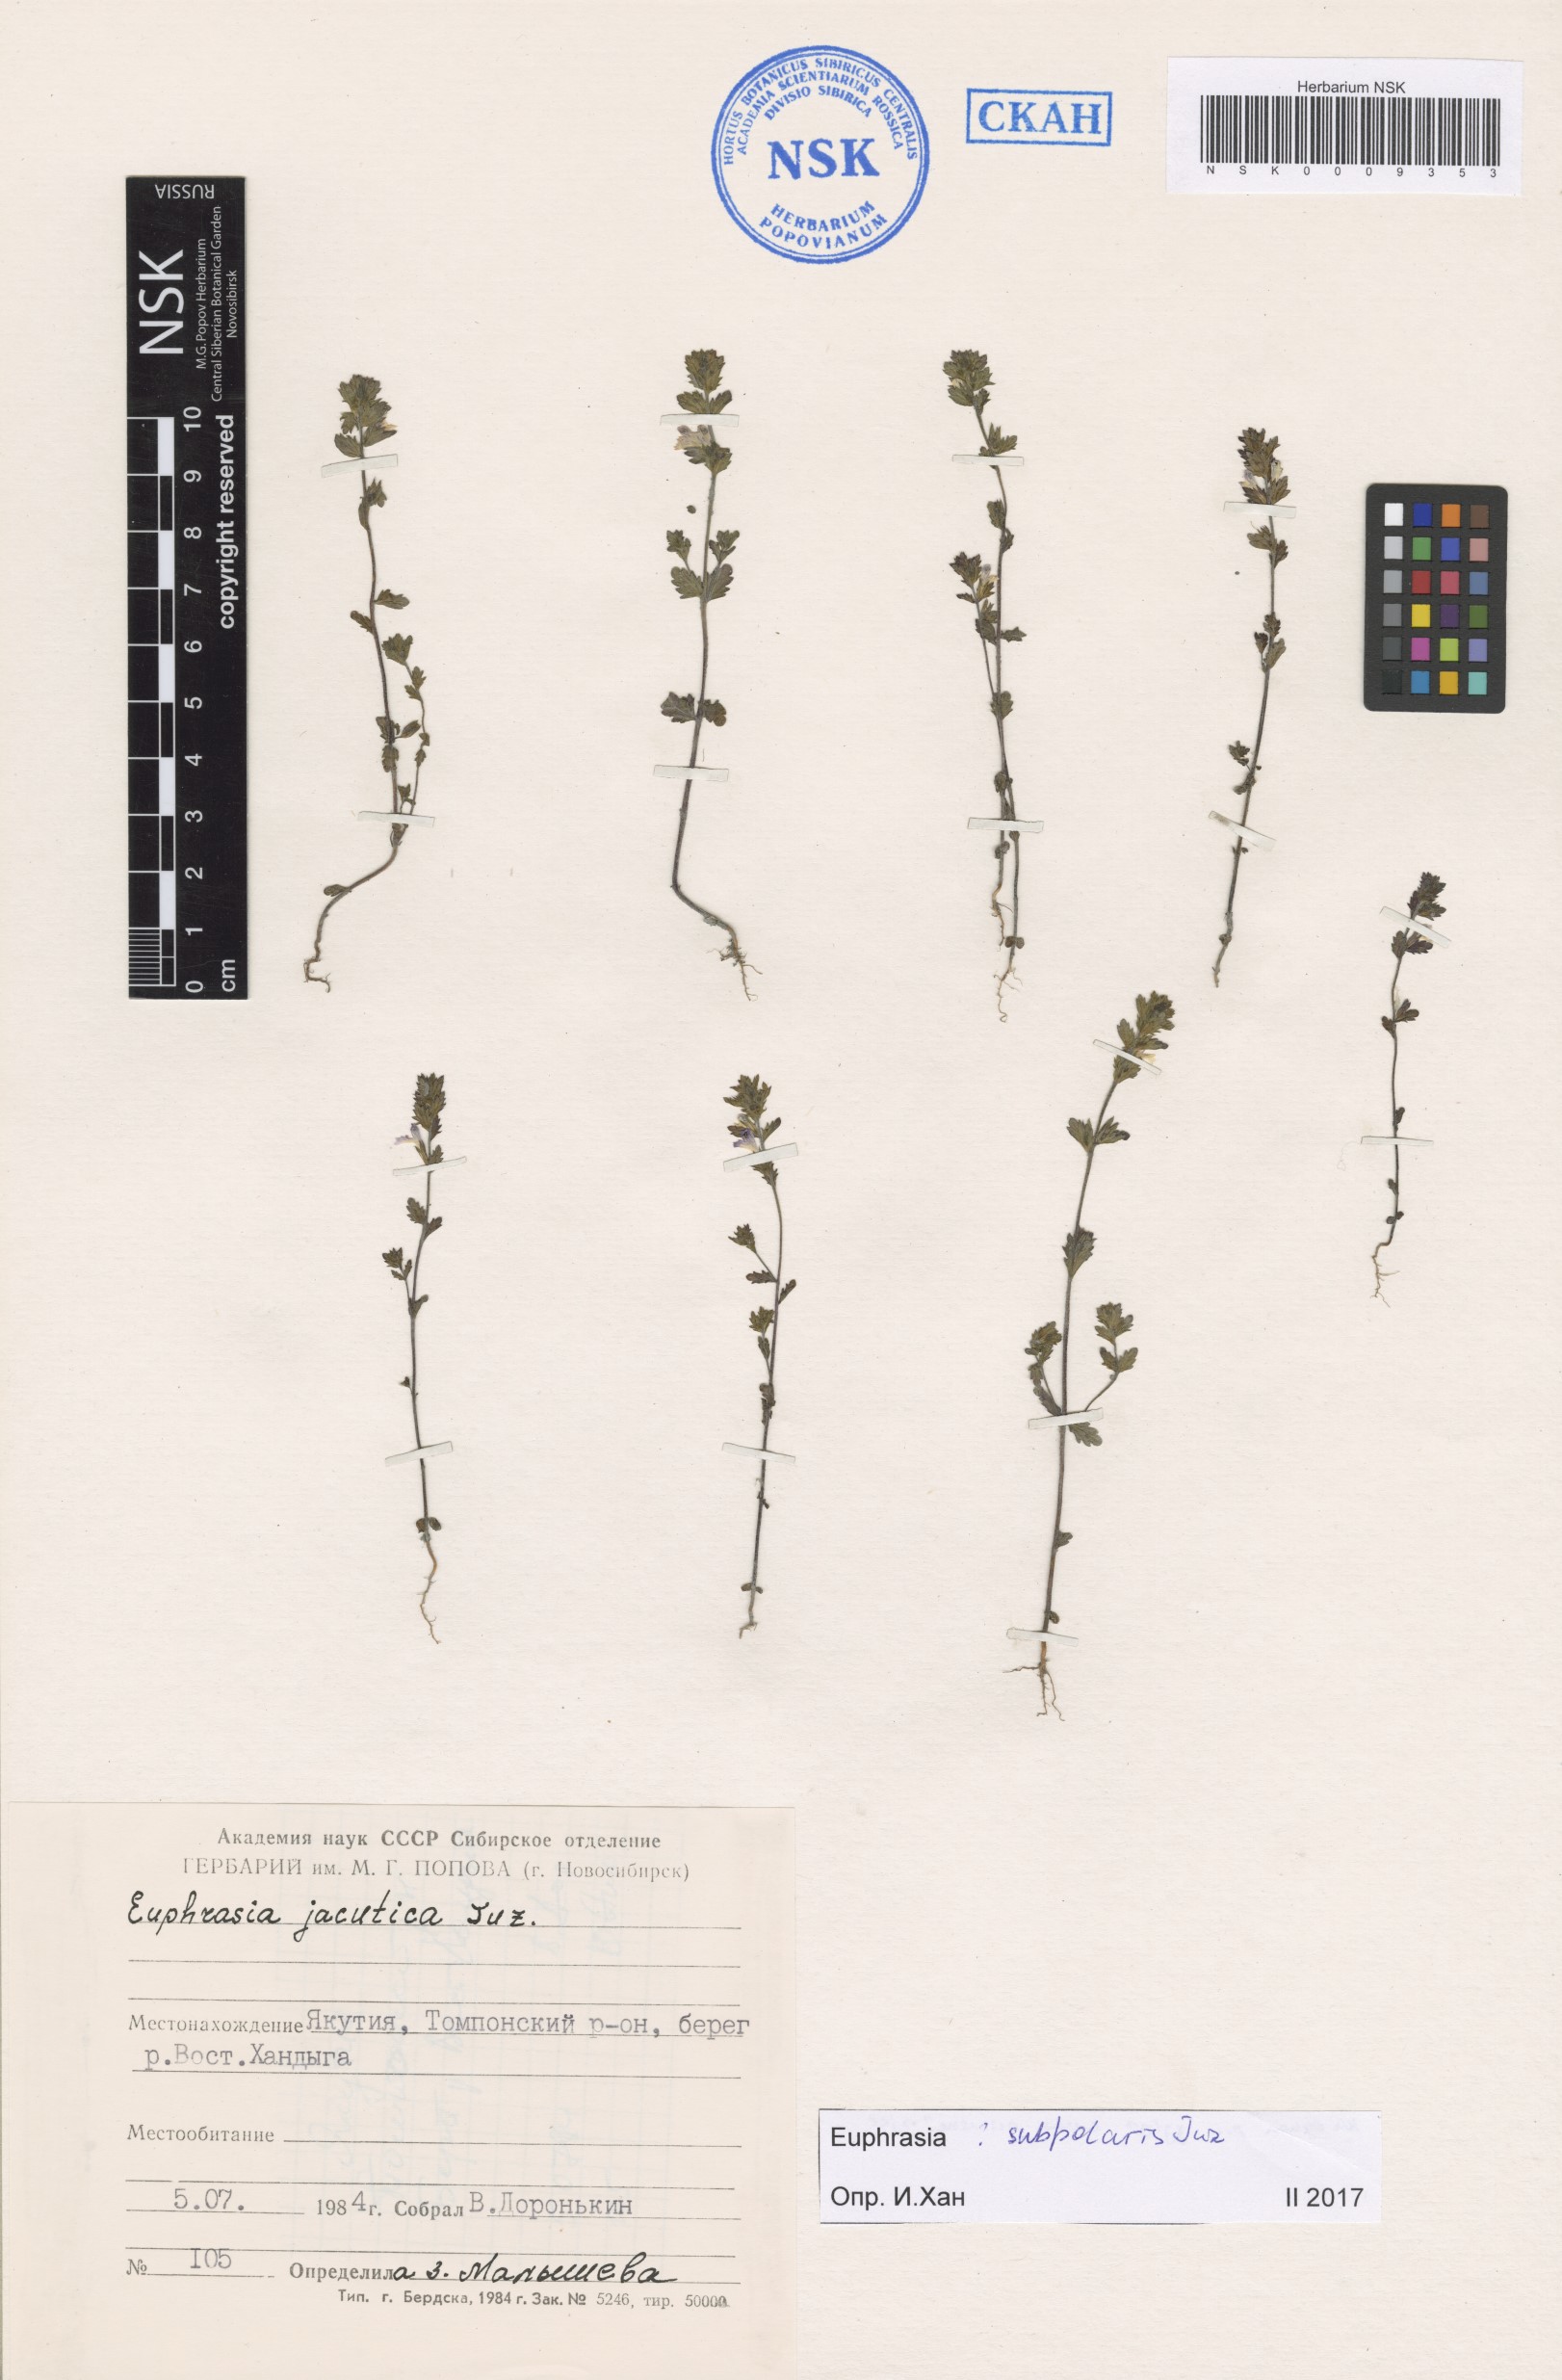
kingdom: Plantae
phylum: Tracheophyta
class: Magnoliopsida
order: Lamiales
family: Orobanchaceae
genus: Euphrasia
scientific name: Euphrasia hyperborea
